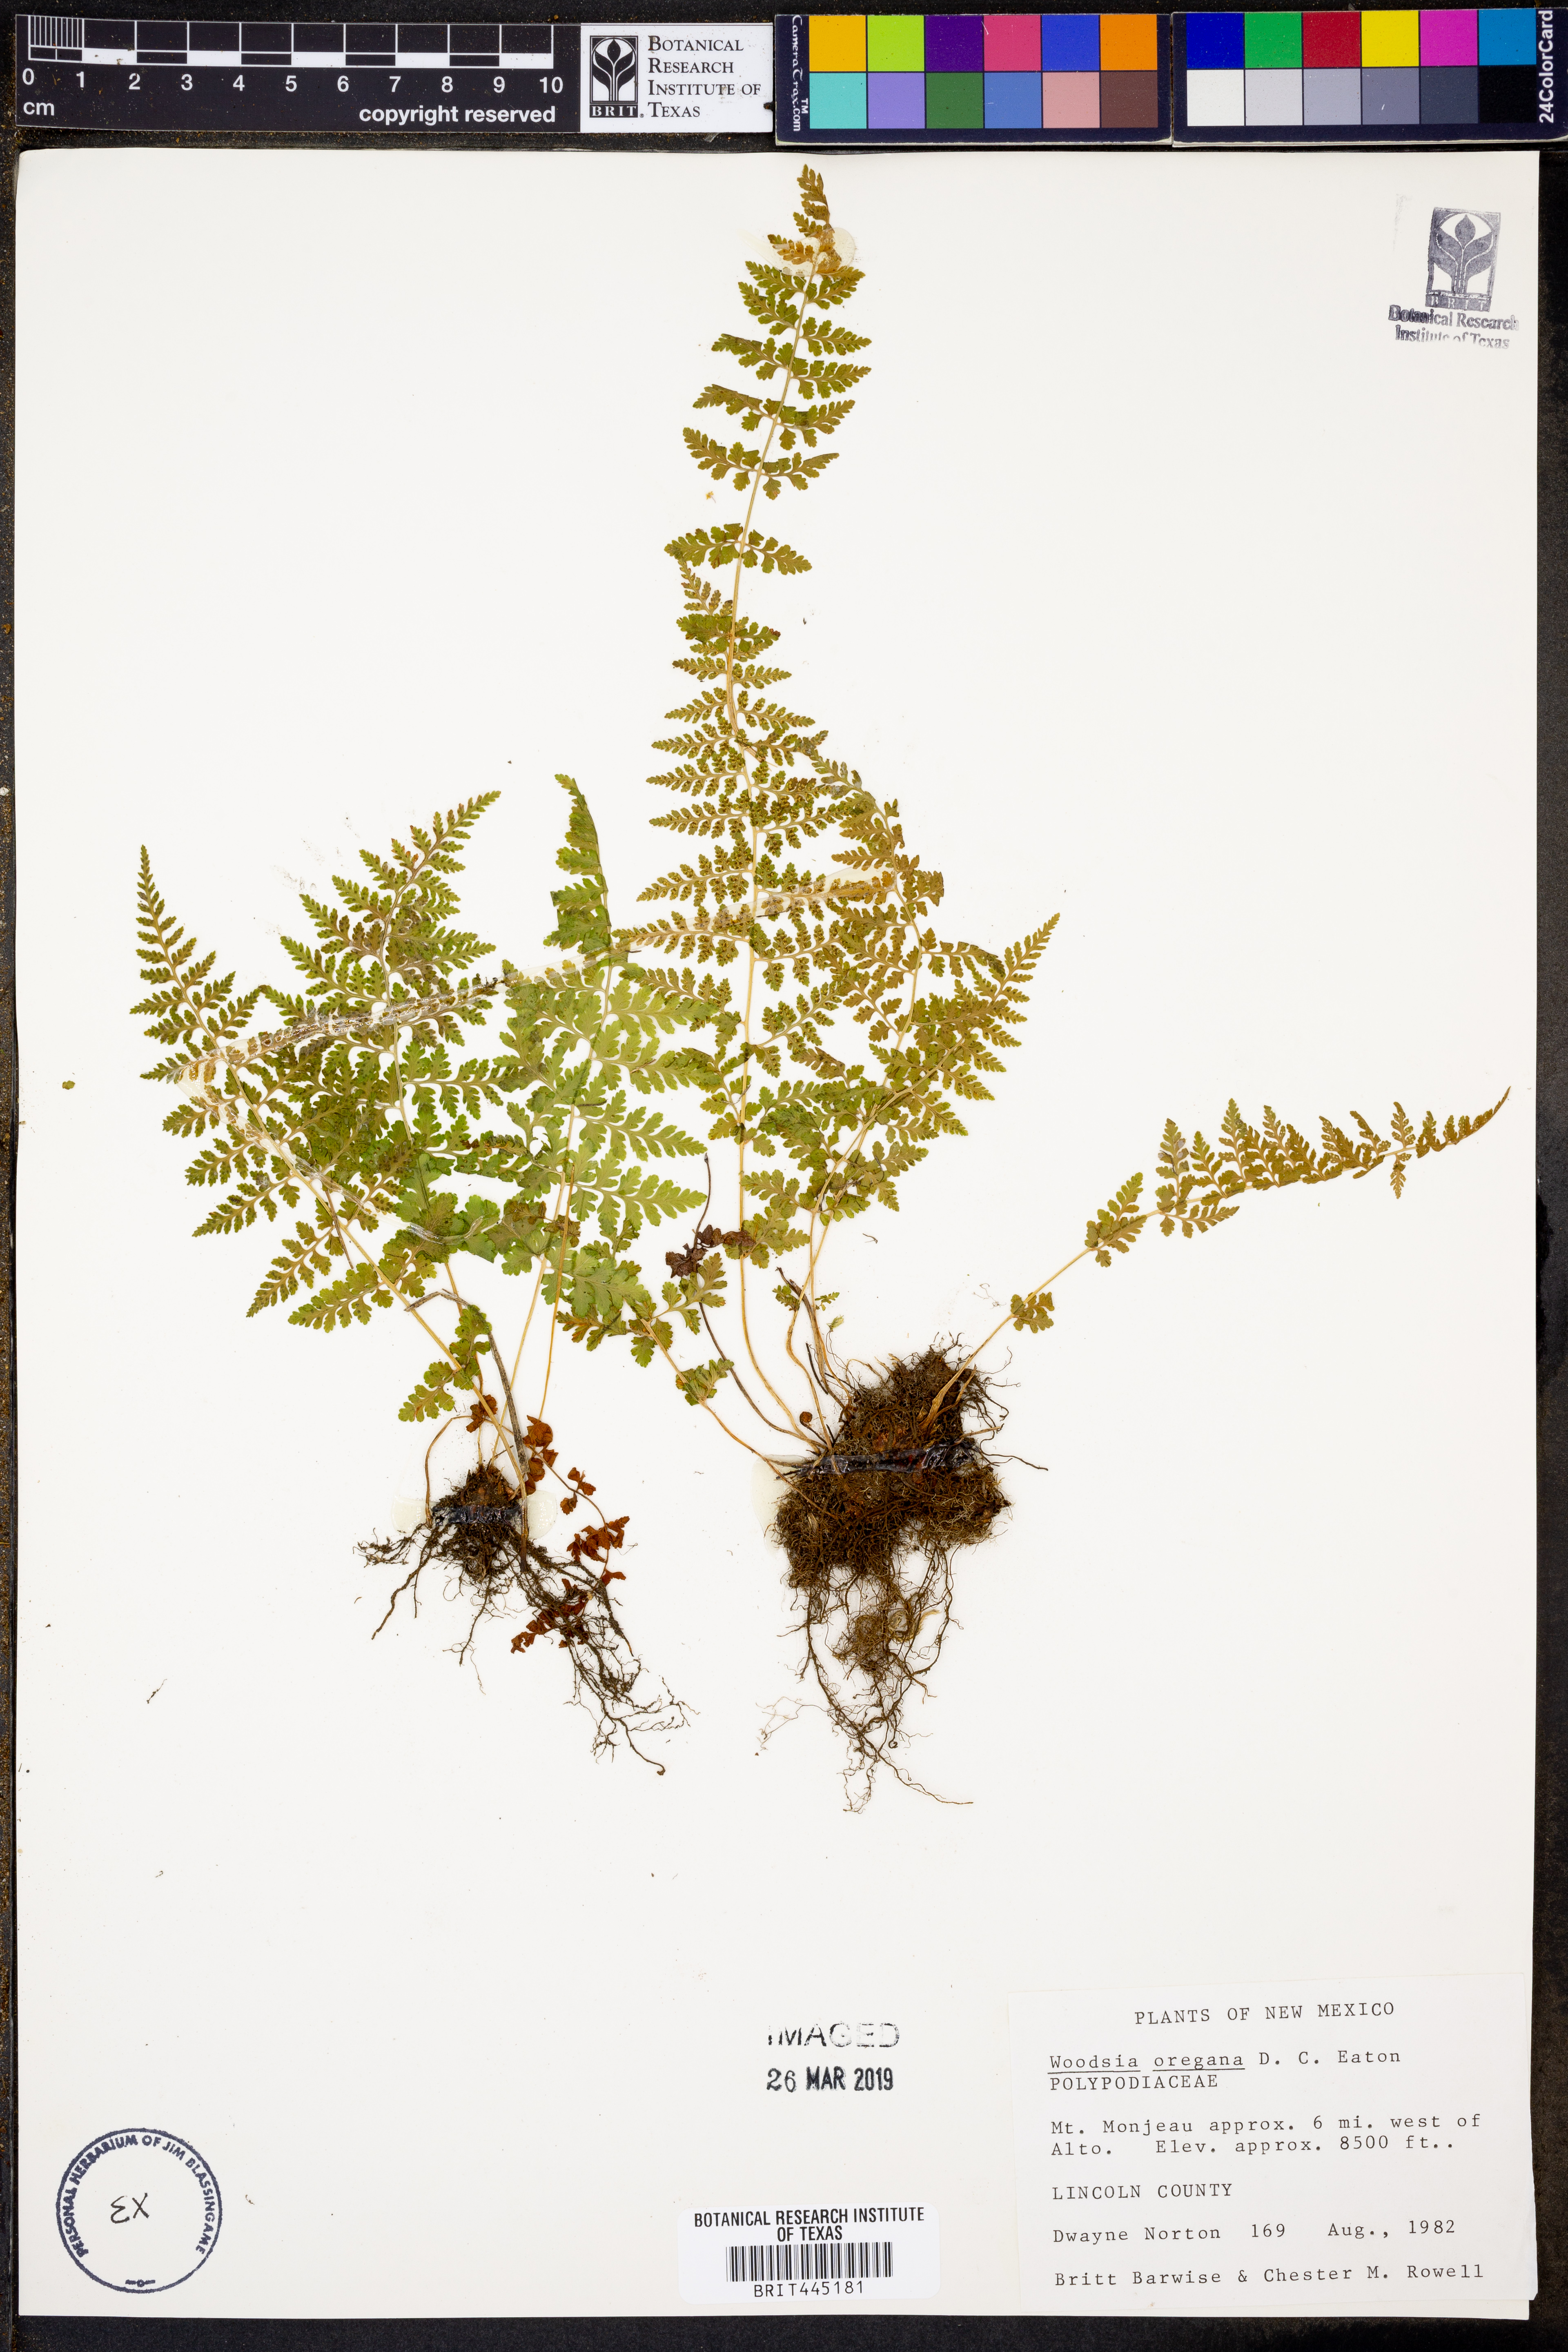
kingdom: Plantae
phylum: Tracheophyta
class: Polypodiopsida
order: Polypodiales
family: Woodsiaceae
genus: Physematium
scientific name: Physematium oreganum
